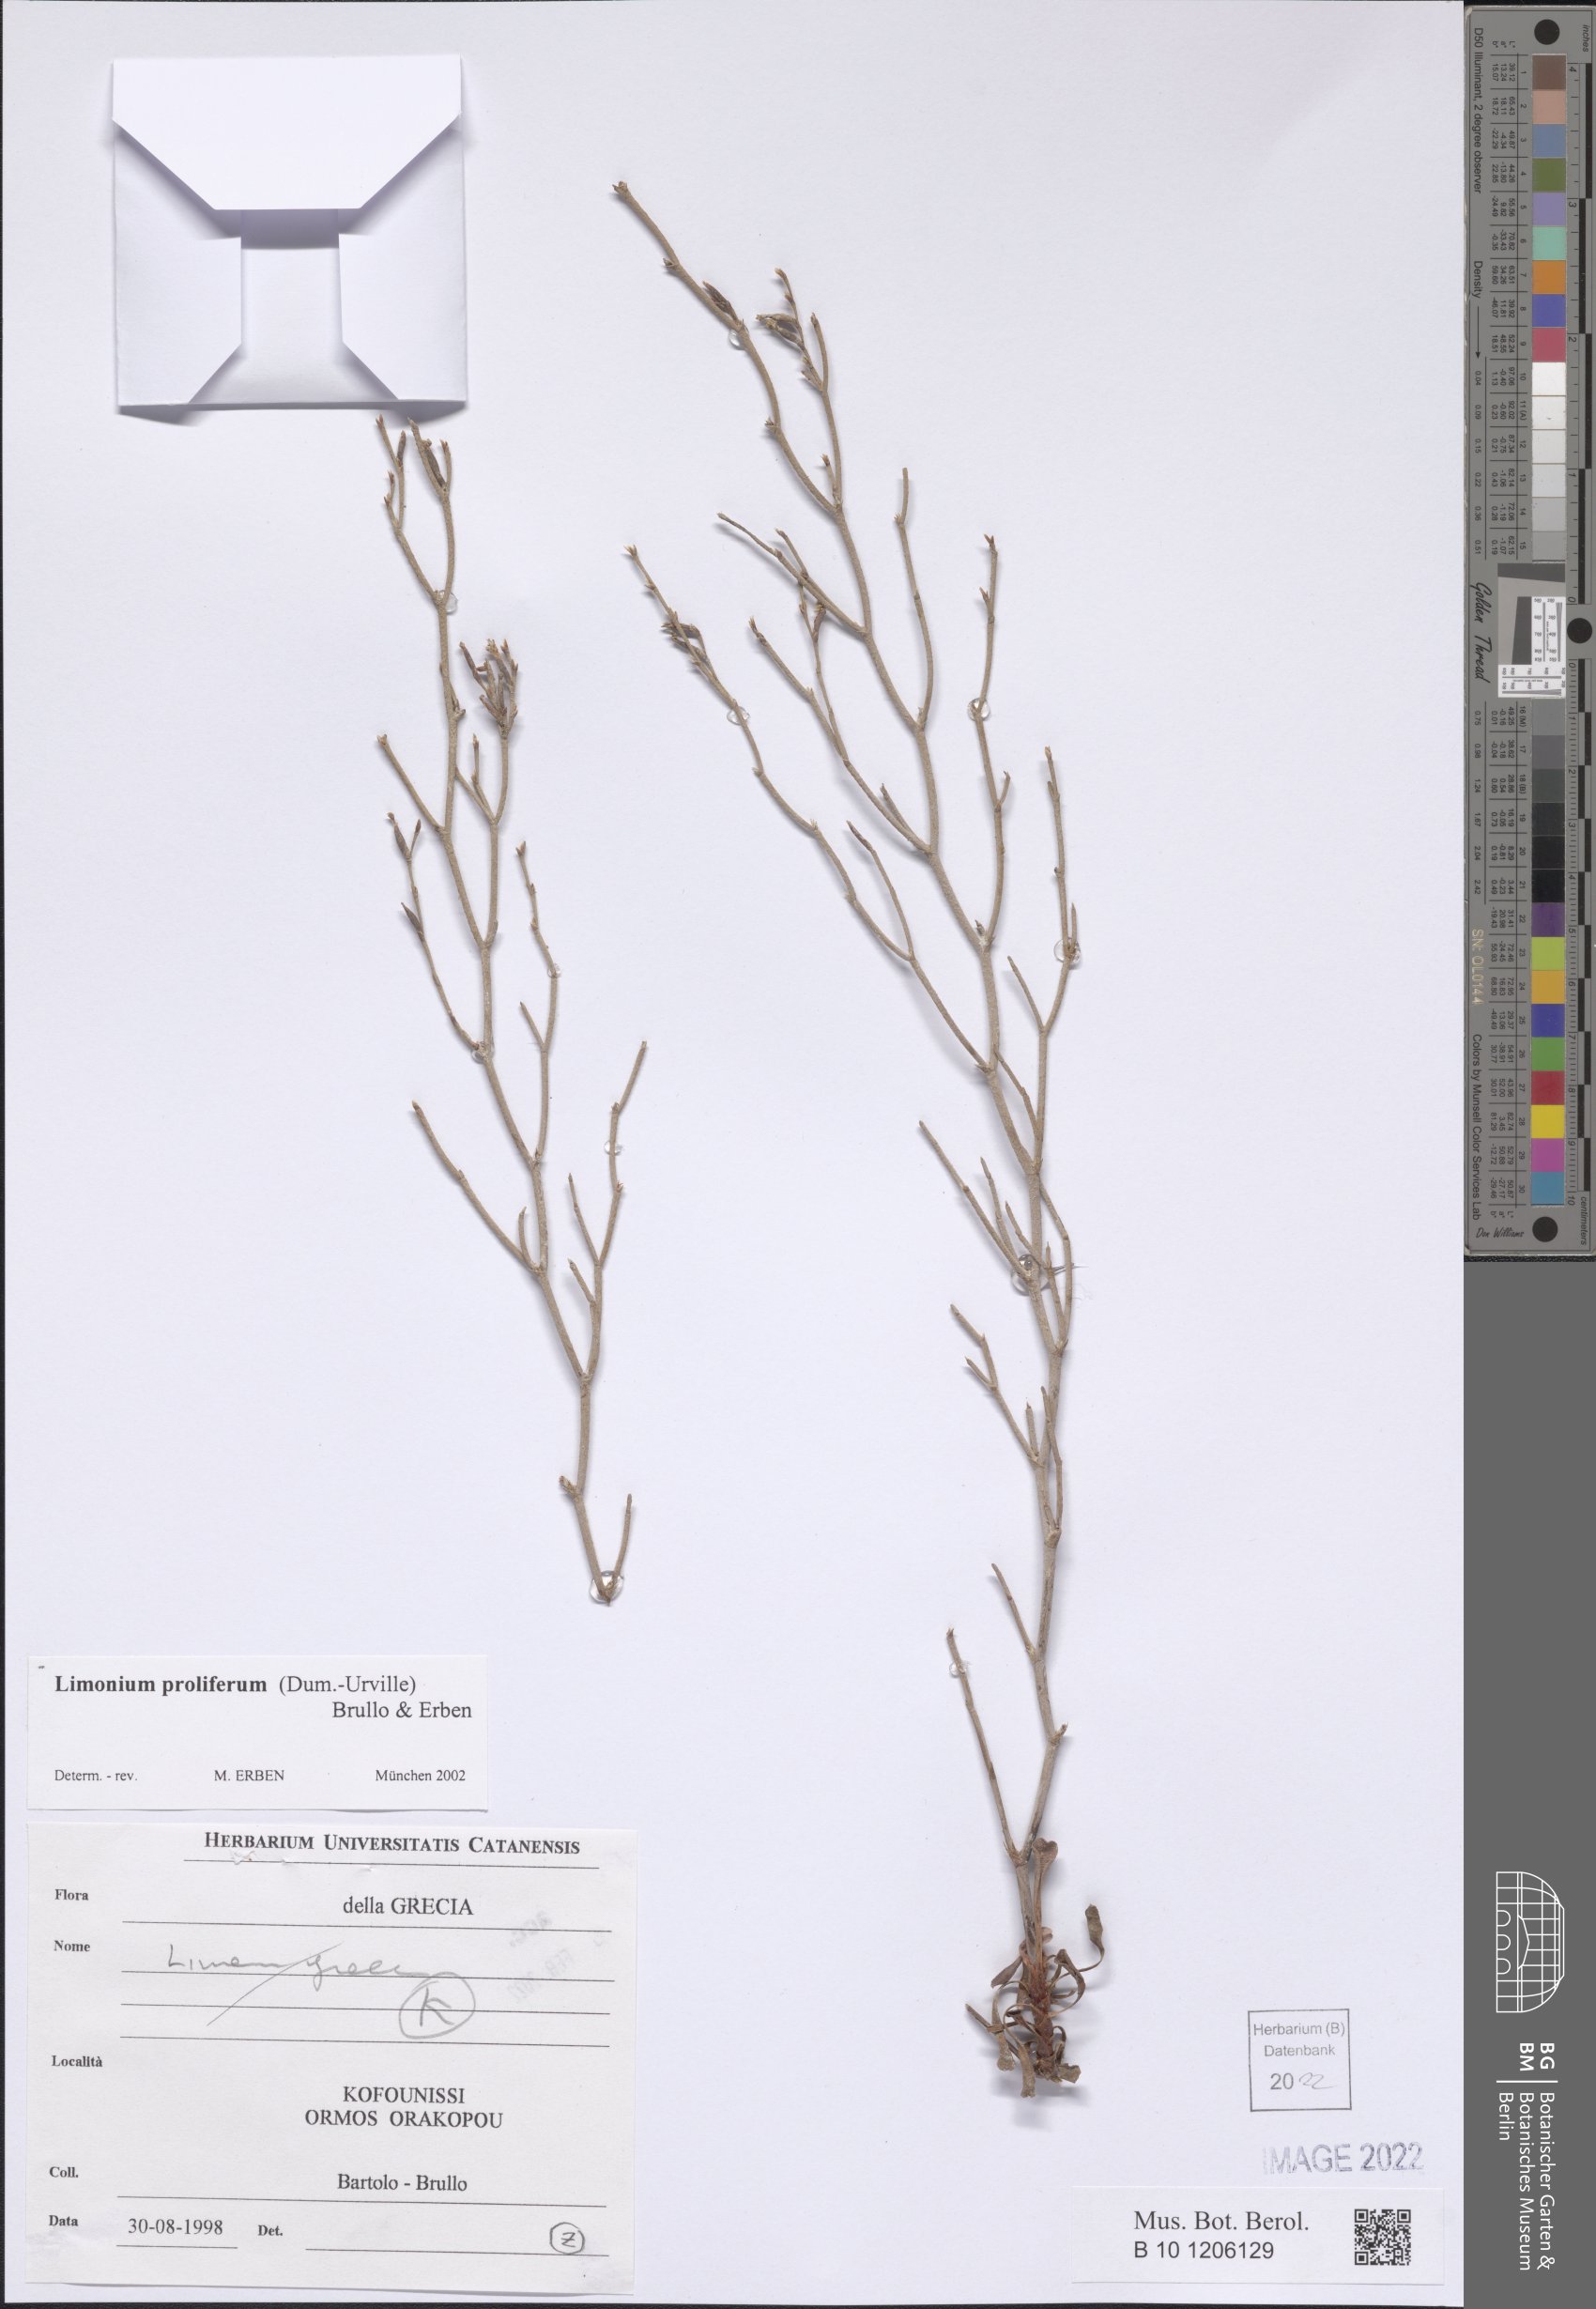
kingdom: Plantae
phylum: Tracheophyta
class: Magnoliopsida
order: Caryophyllales
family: Plumbaginaceae
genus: Limonium
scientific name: Limonium proliferum
